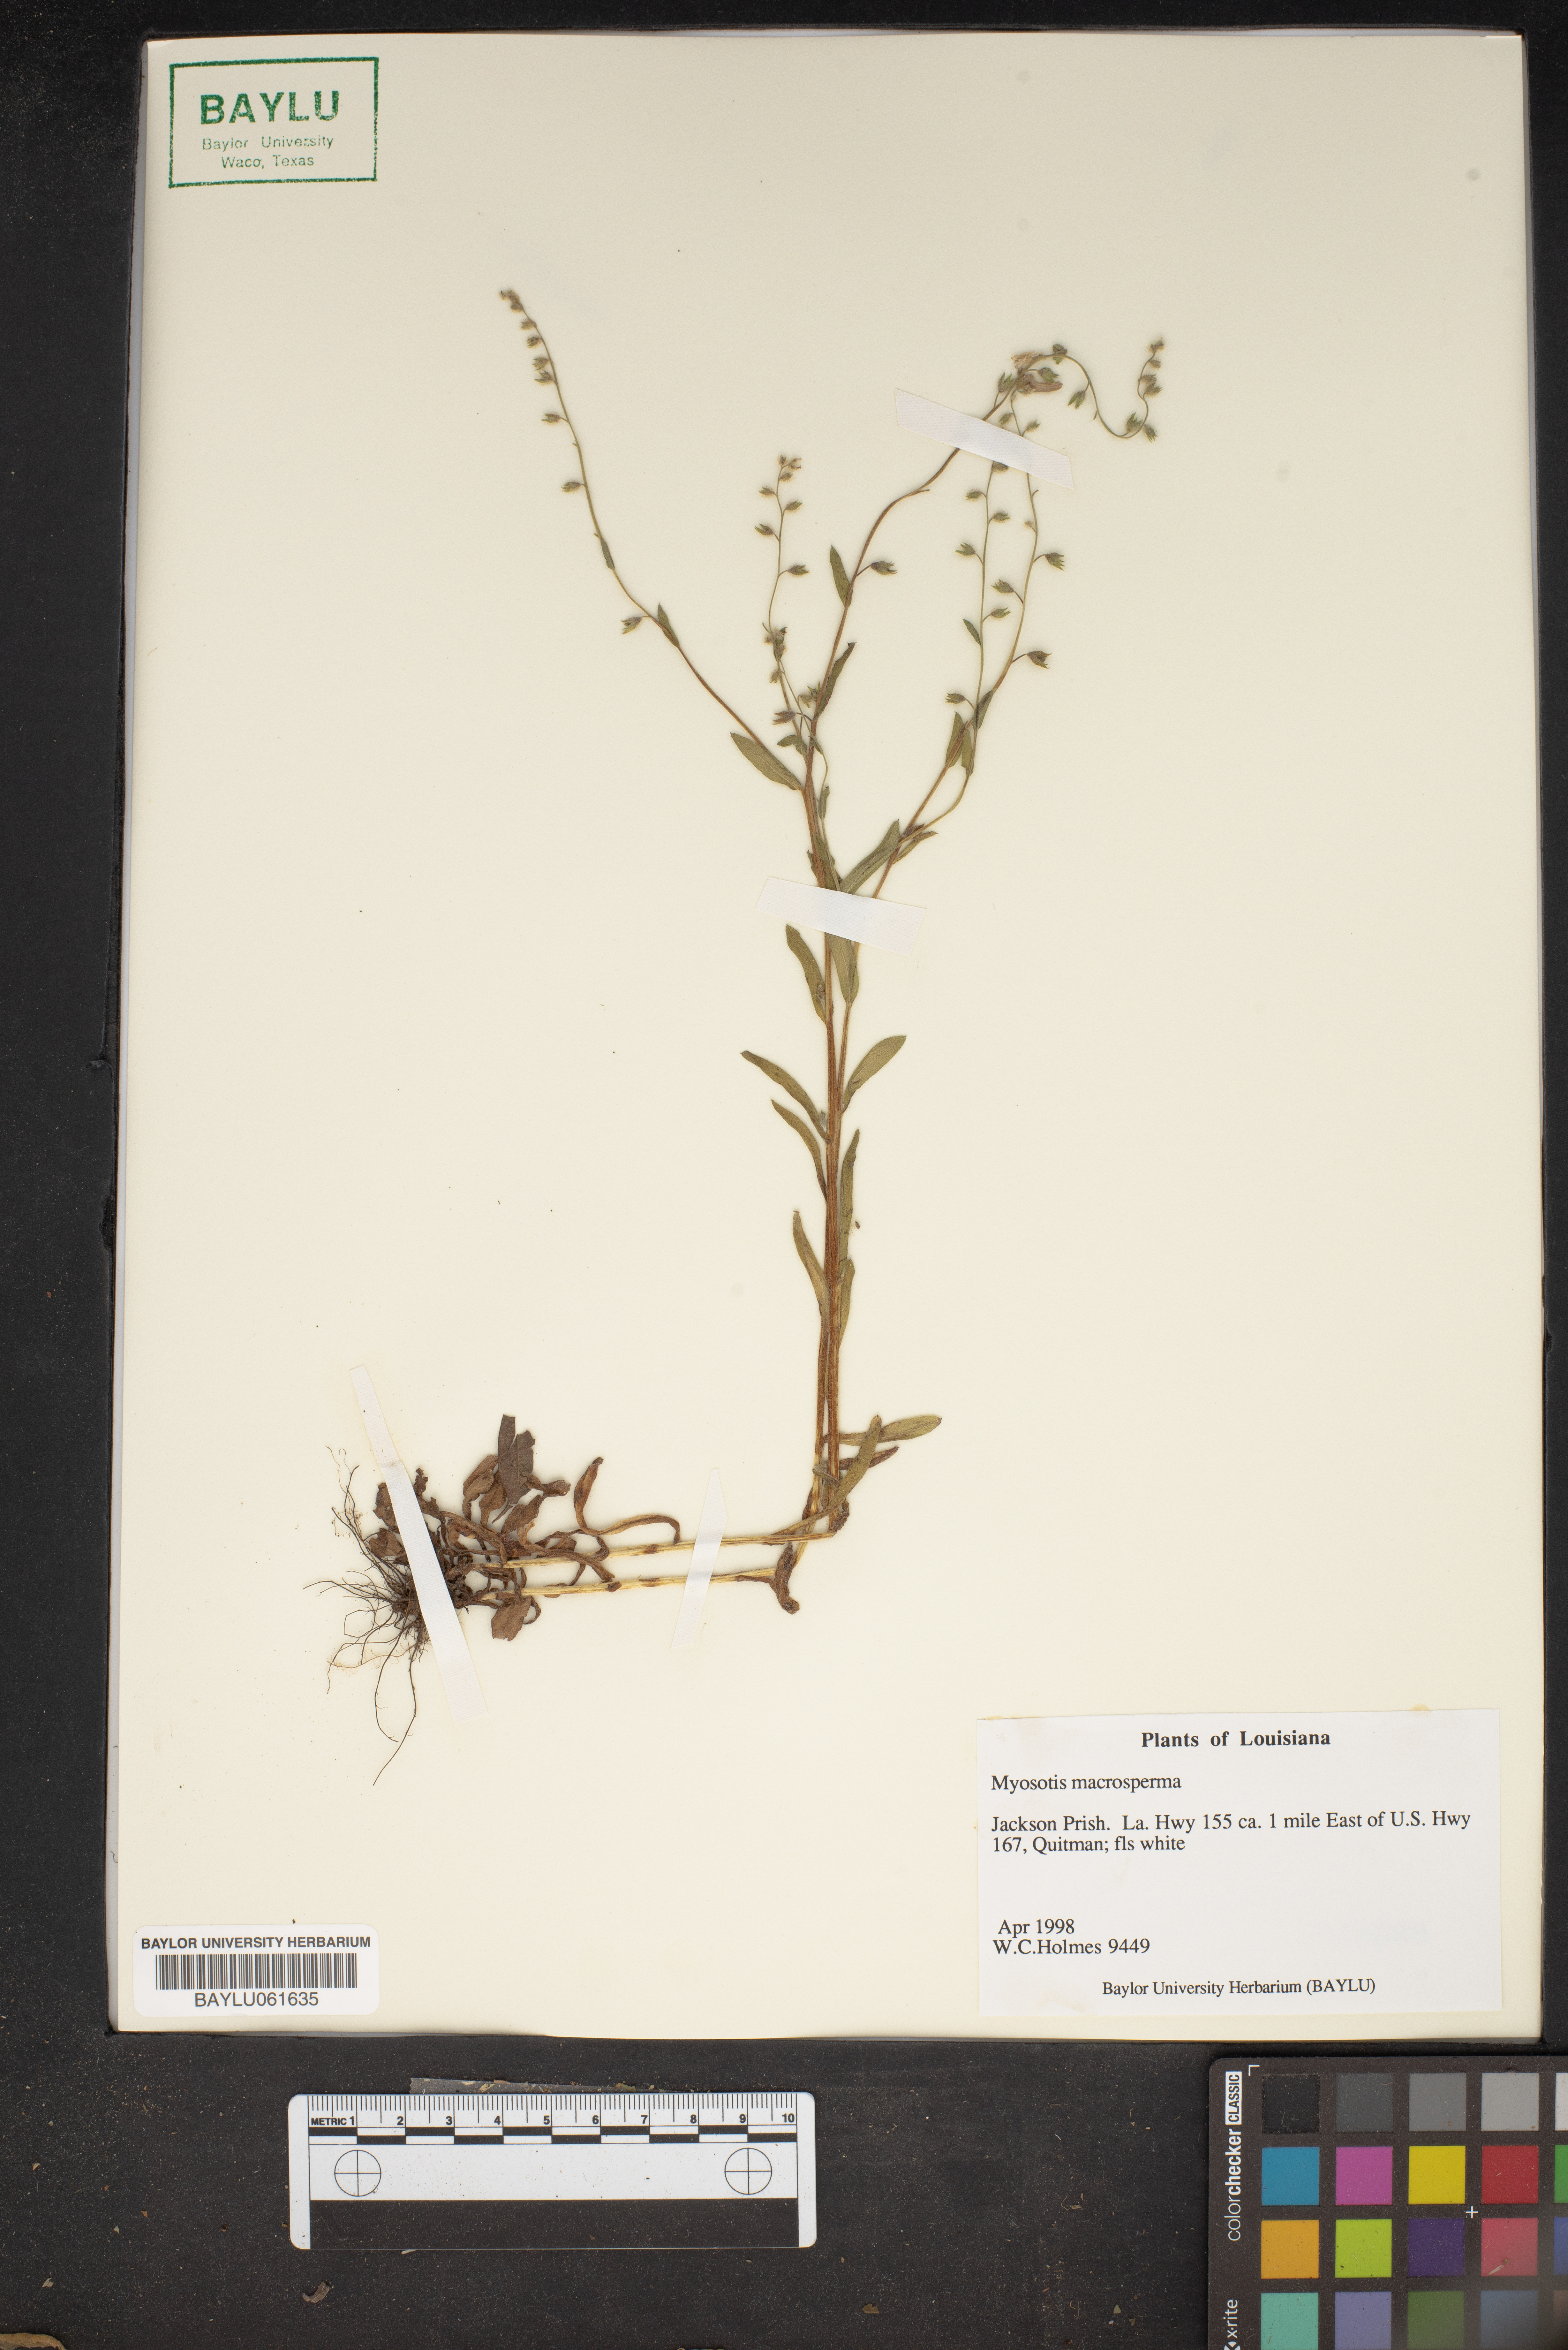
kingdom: Plantae
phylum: Tracheophyta
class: Magnoliopsida
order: Boraginales
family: Boraginaceae
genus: Myosotis
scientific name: Myosotis macrosperma
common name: Large-seed forget-me-not
